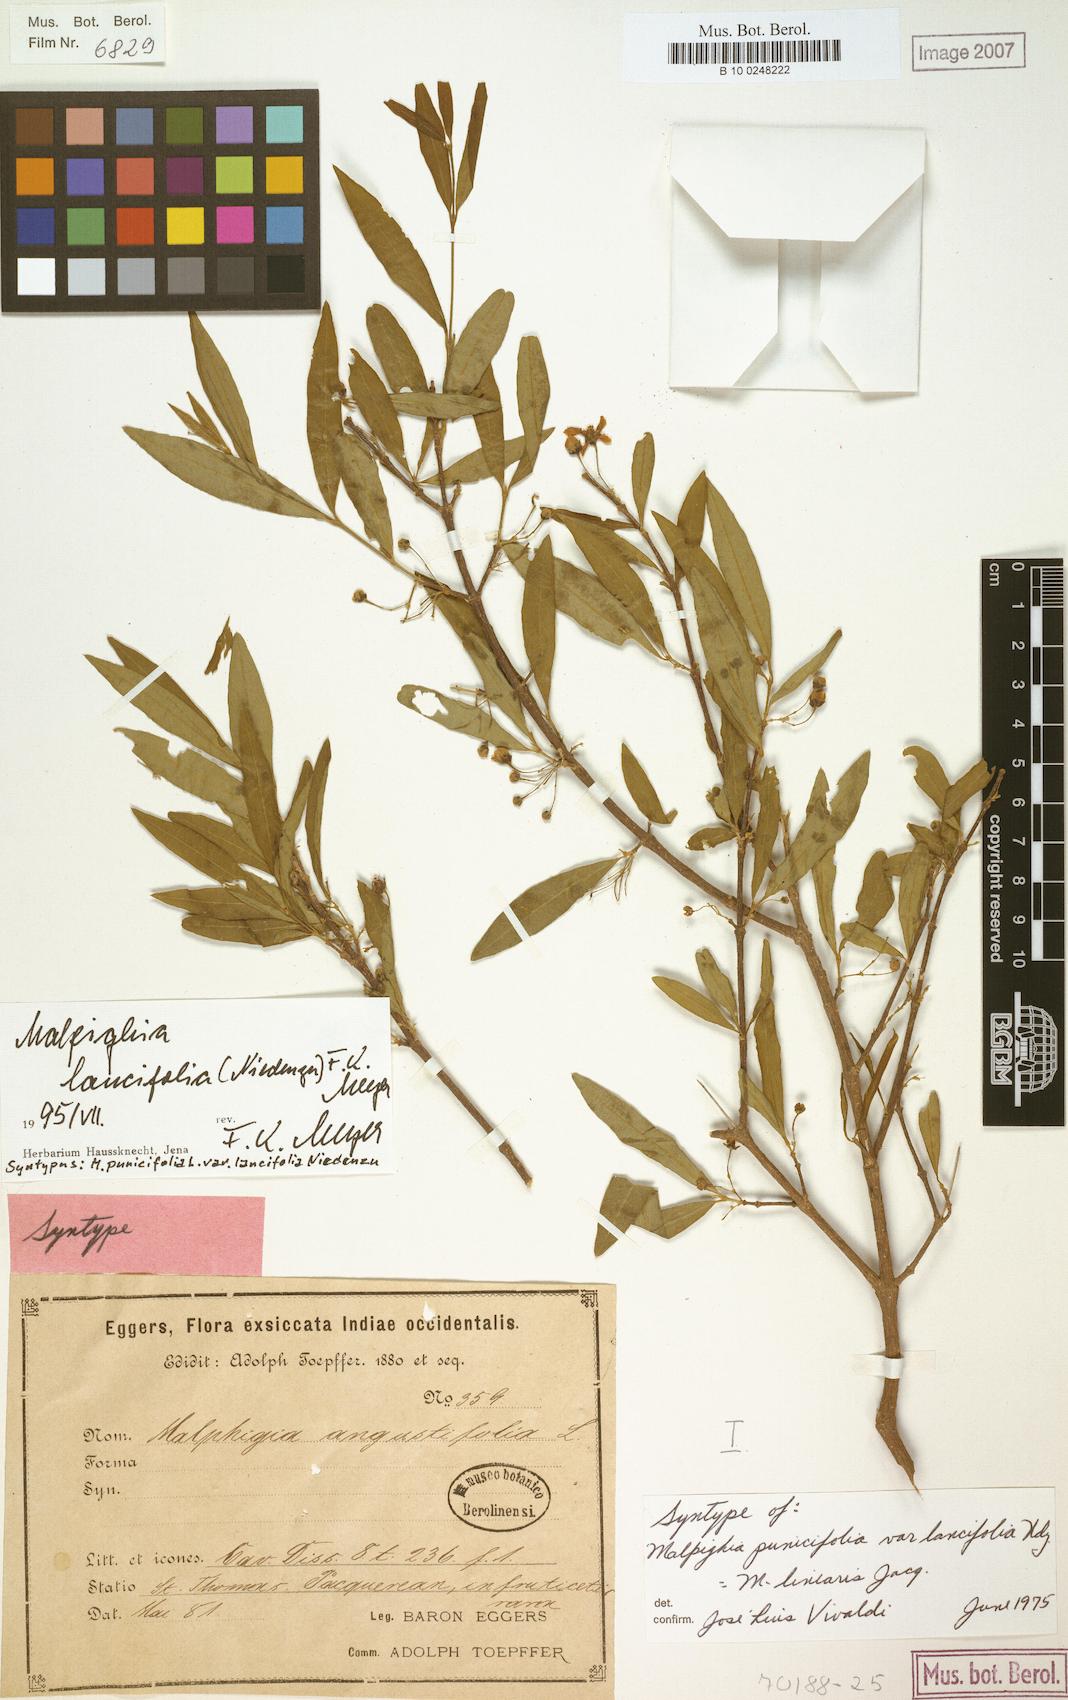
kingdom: Plantae
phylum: Tracheophyta
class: Magnoliopsida
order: Malpighiales
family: Malpighiaceae
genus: Malpighia
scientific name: Malpighia emarginata
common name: Barbados cherry
